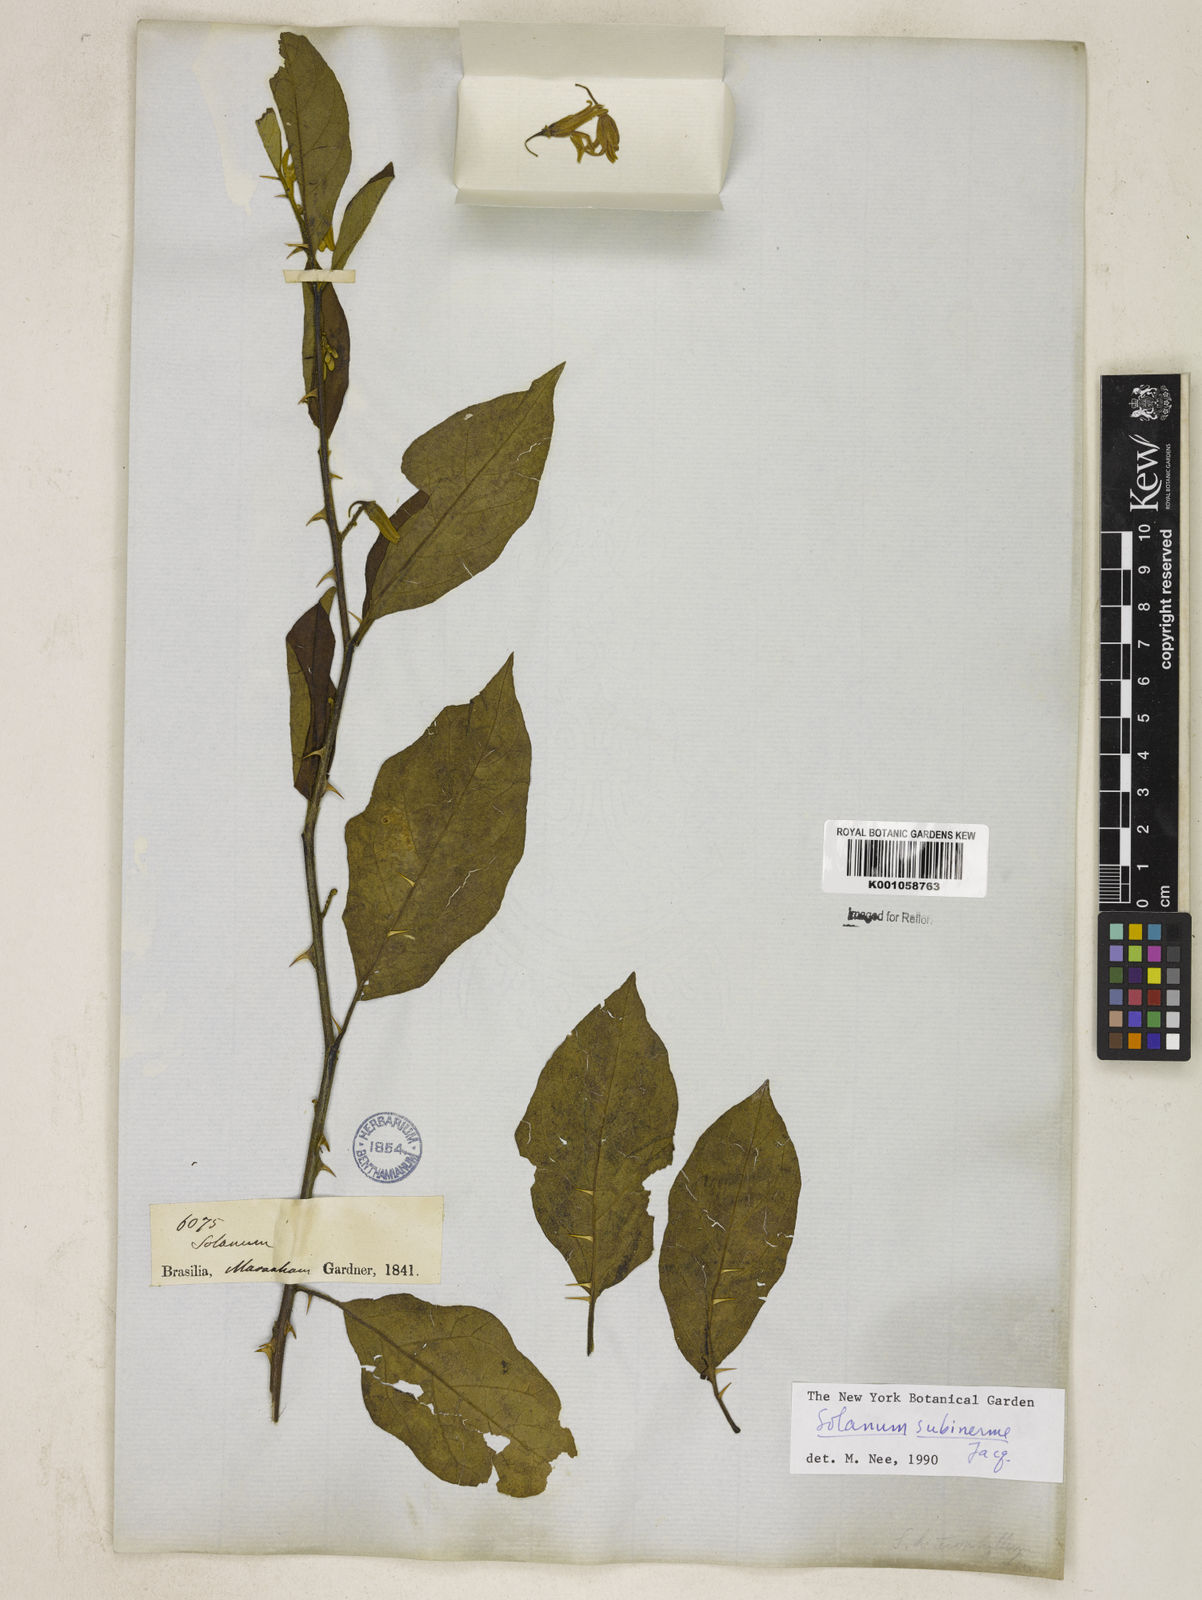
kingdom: Plantae
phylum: Tracheophyta
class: Magnoliopsida
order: Solanales
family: Solanaceae
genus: Solanum
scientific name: Solanum subinerme
